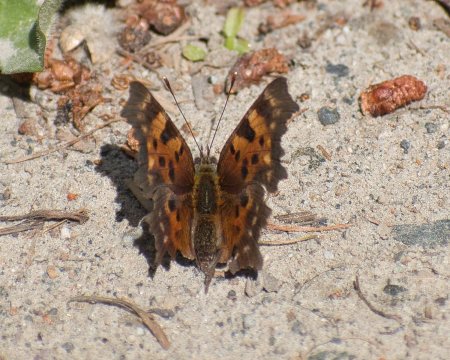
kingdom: Animalia
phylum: Arthropoda
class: Insecta
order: Lepidoptera
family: Nymphalidae
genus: Polygonia
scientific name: Polygonia faunus
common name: Green Comma
